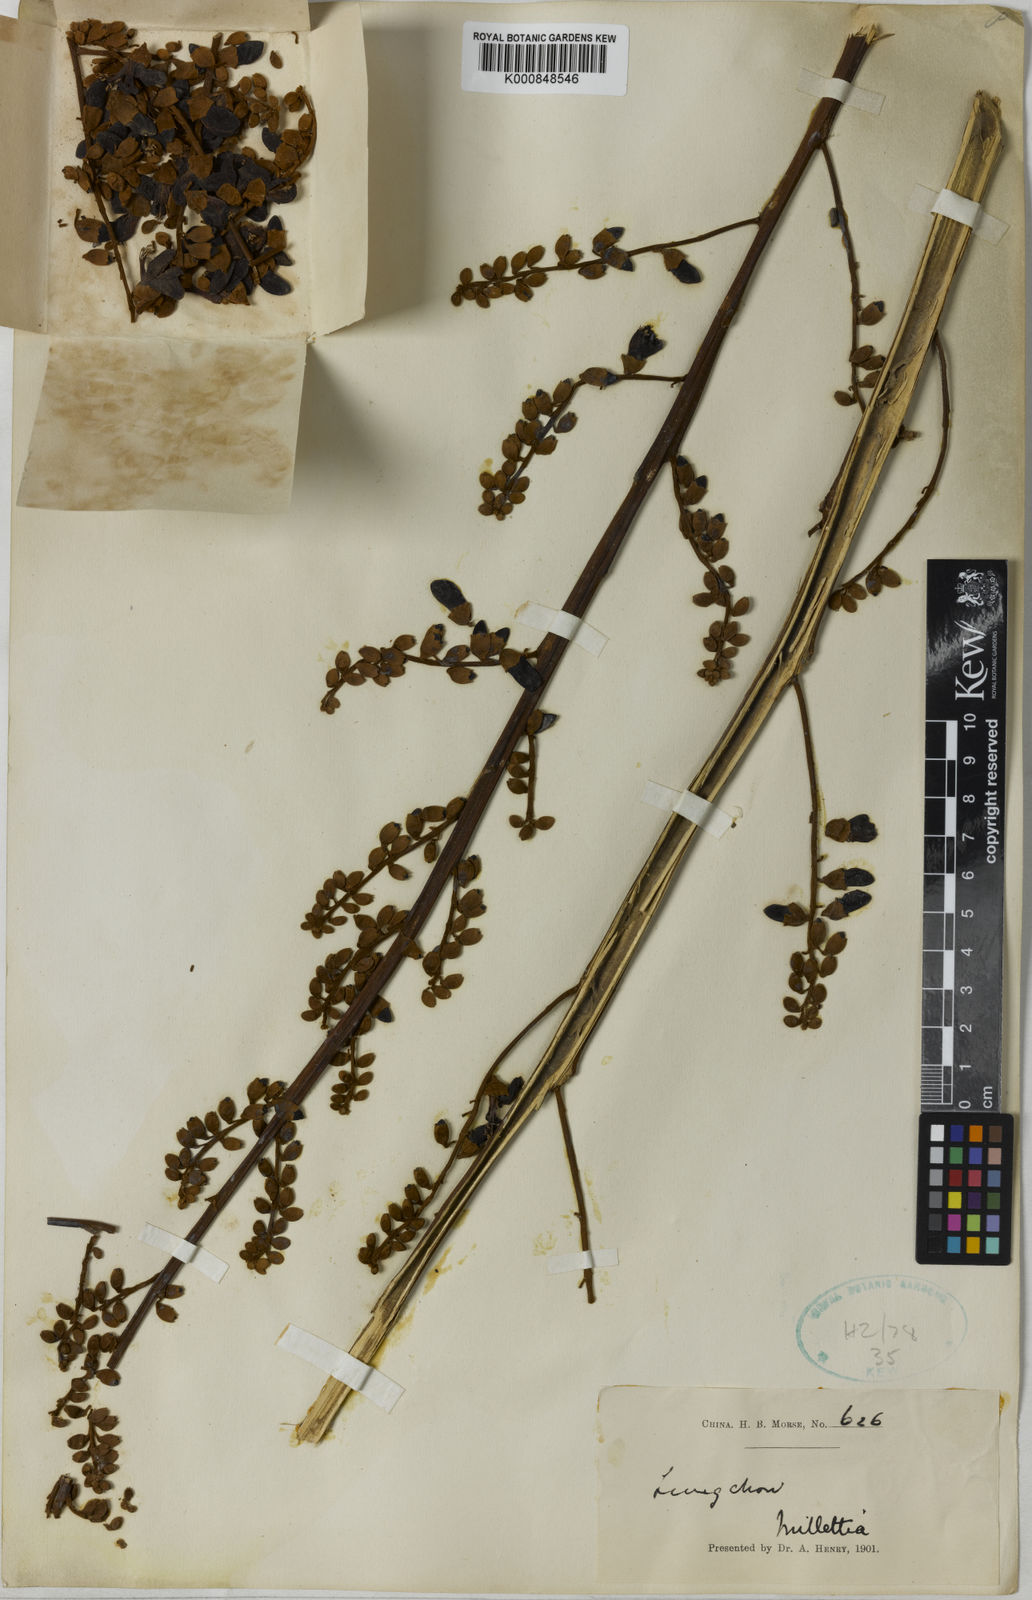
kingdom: Plantae
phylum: Tracheophyta
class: Magnoliopsida
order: Fabales
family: Fabaceae
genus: Aganope
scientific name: Aganope heptaphylla
